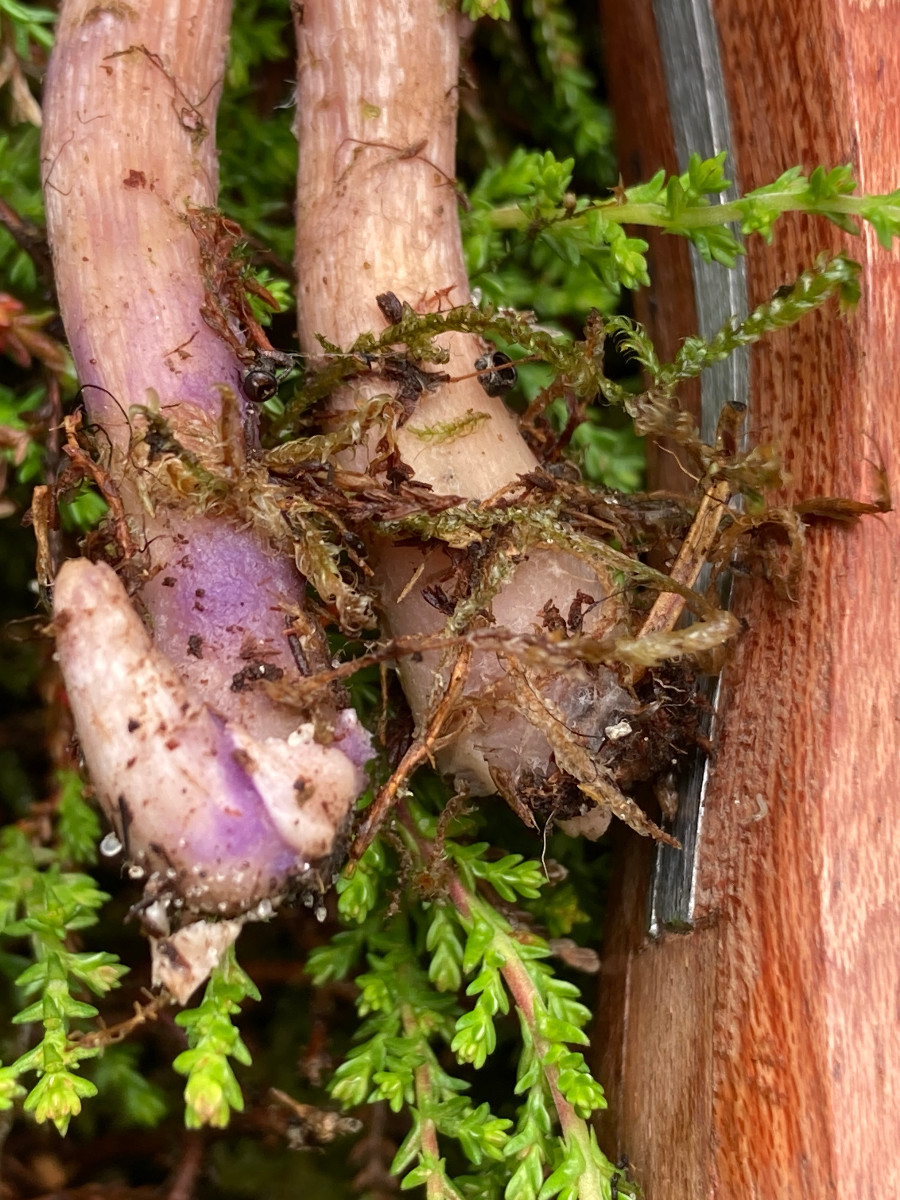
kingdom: Fungi
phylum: Basidiomycota
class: Agaricomycetes
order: Agaricales
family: Hydnangiaceae
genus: Laccaria
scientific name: Laccaria bicolor
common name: tvefarvet ametysthat
